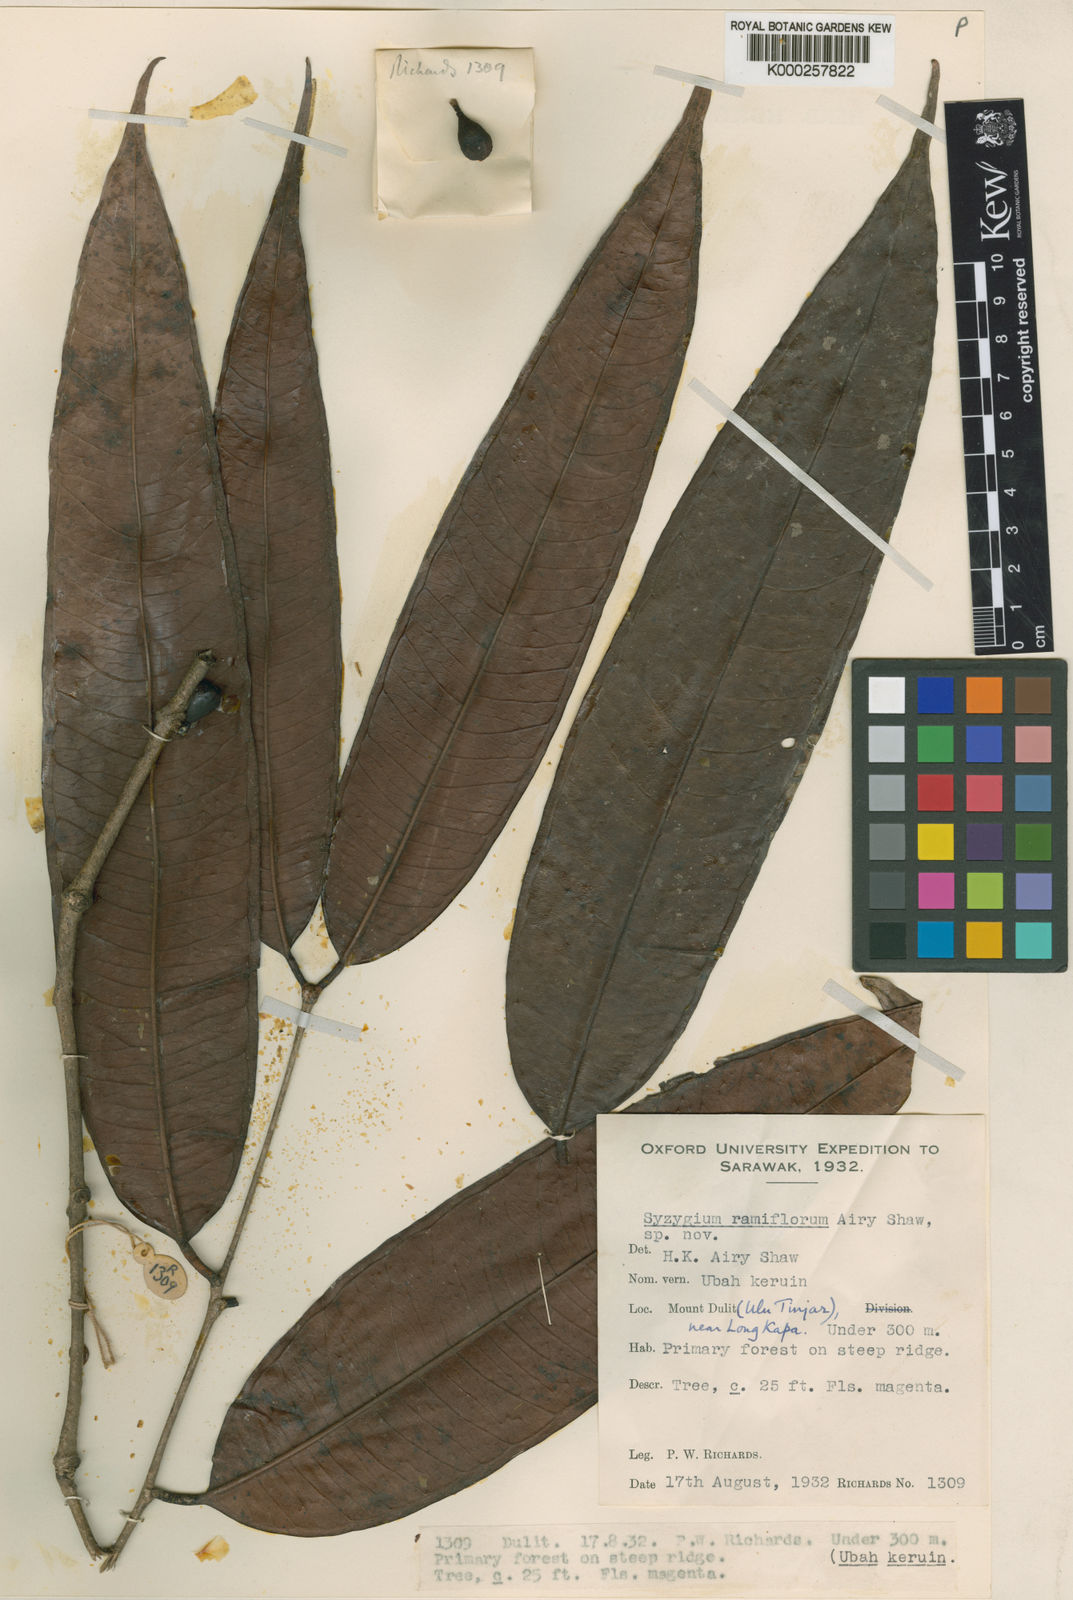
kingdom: Plantae
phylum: Tracheophyta
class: Magnoliopsida
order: Myrtales
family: Myrtaceae
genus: Syzygium
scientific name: Syzygium ramiflorum
